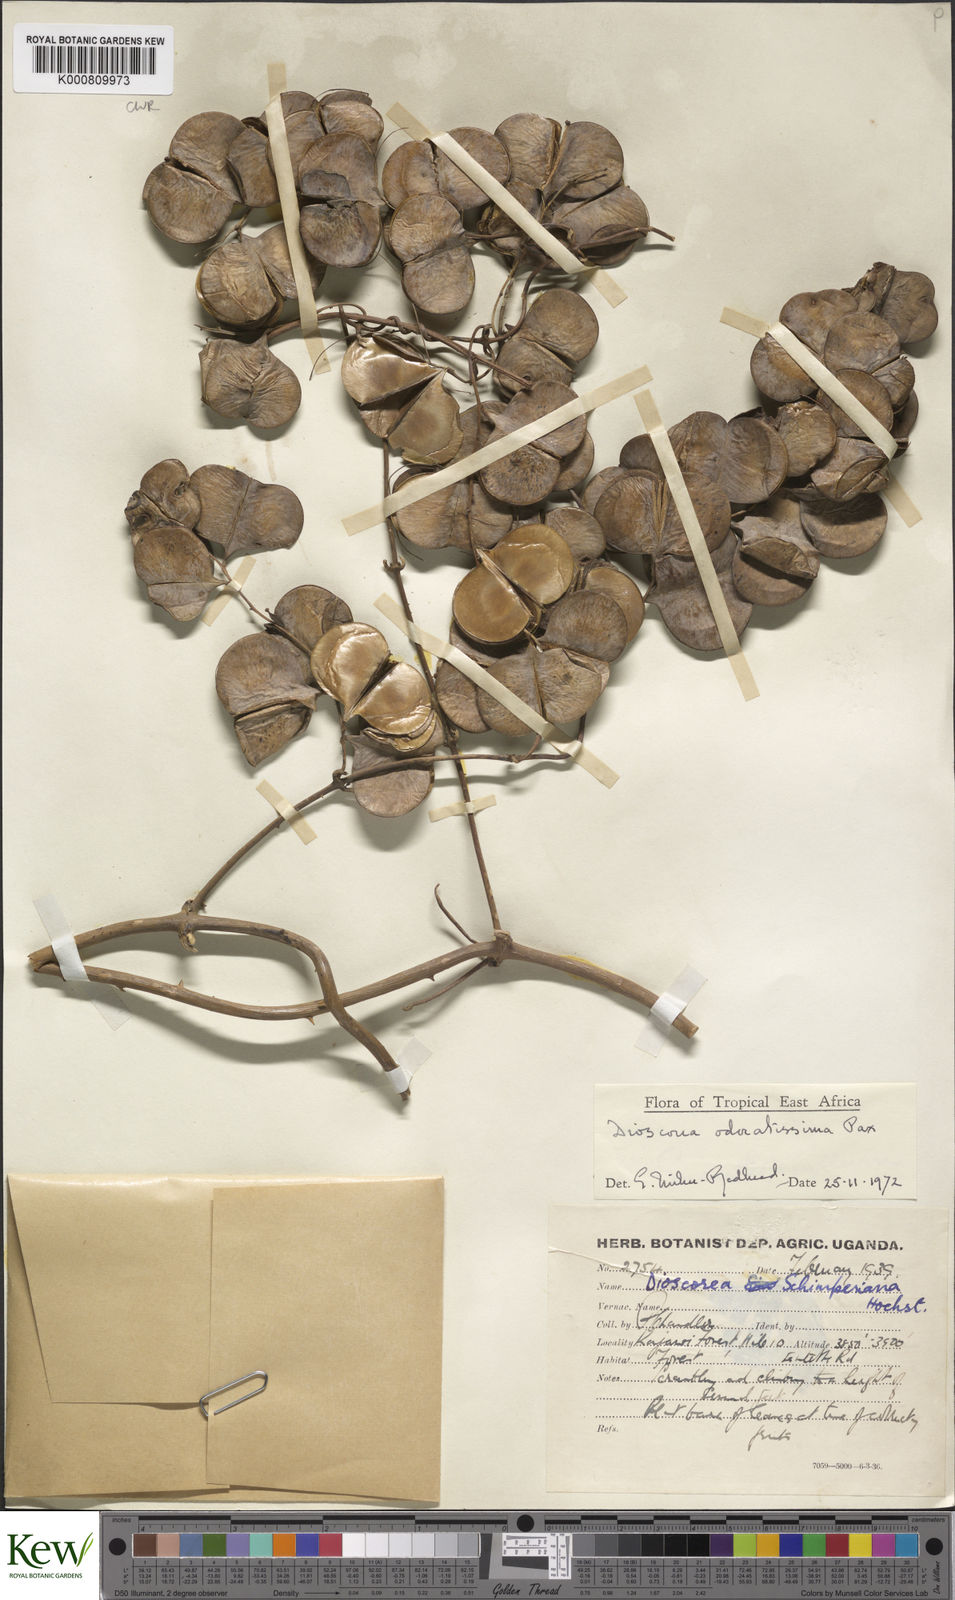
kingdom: Plantae
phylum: Tracheophyta
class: Liliopsida
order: Dioscoreales
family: Dioscoreaceae
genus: Dioscorea
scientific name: Dioscorea praehensilis
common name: Bush yam
